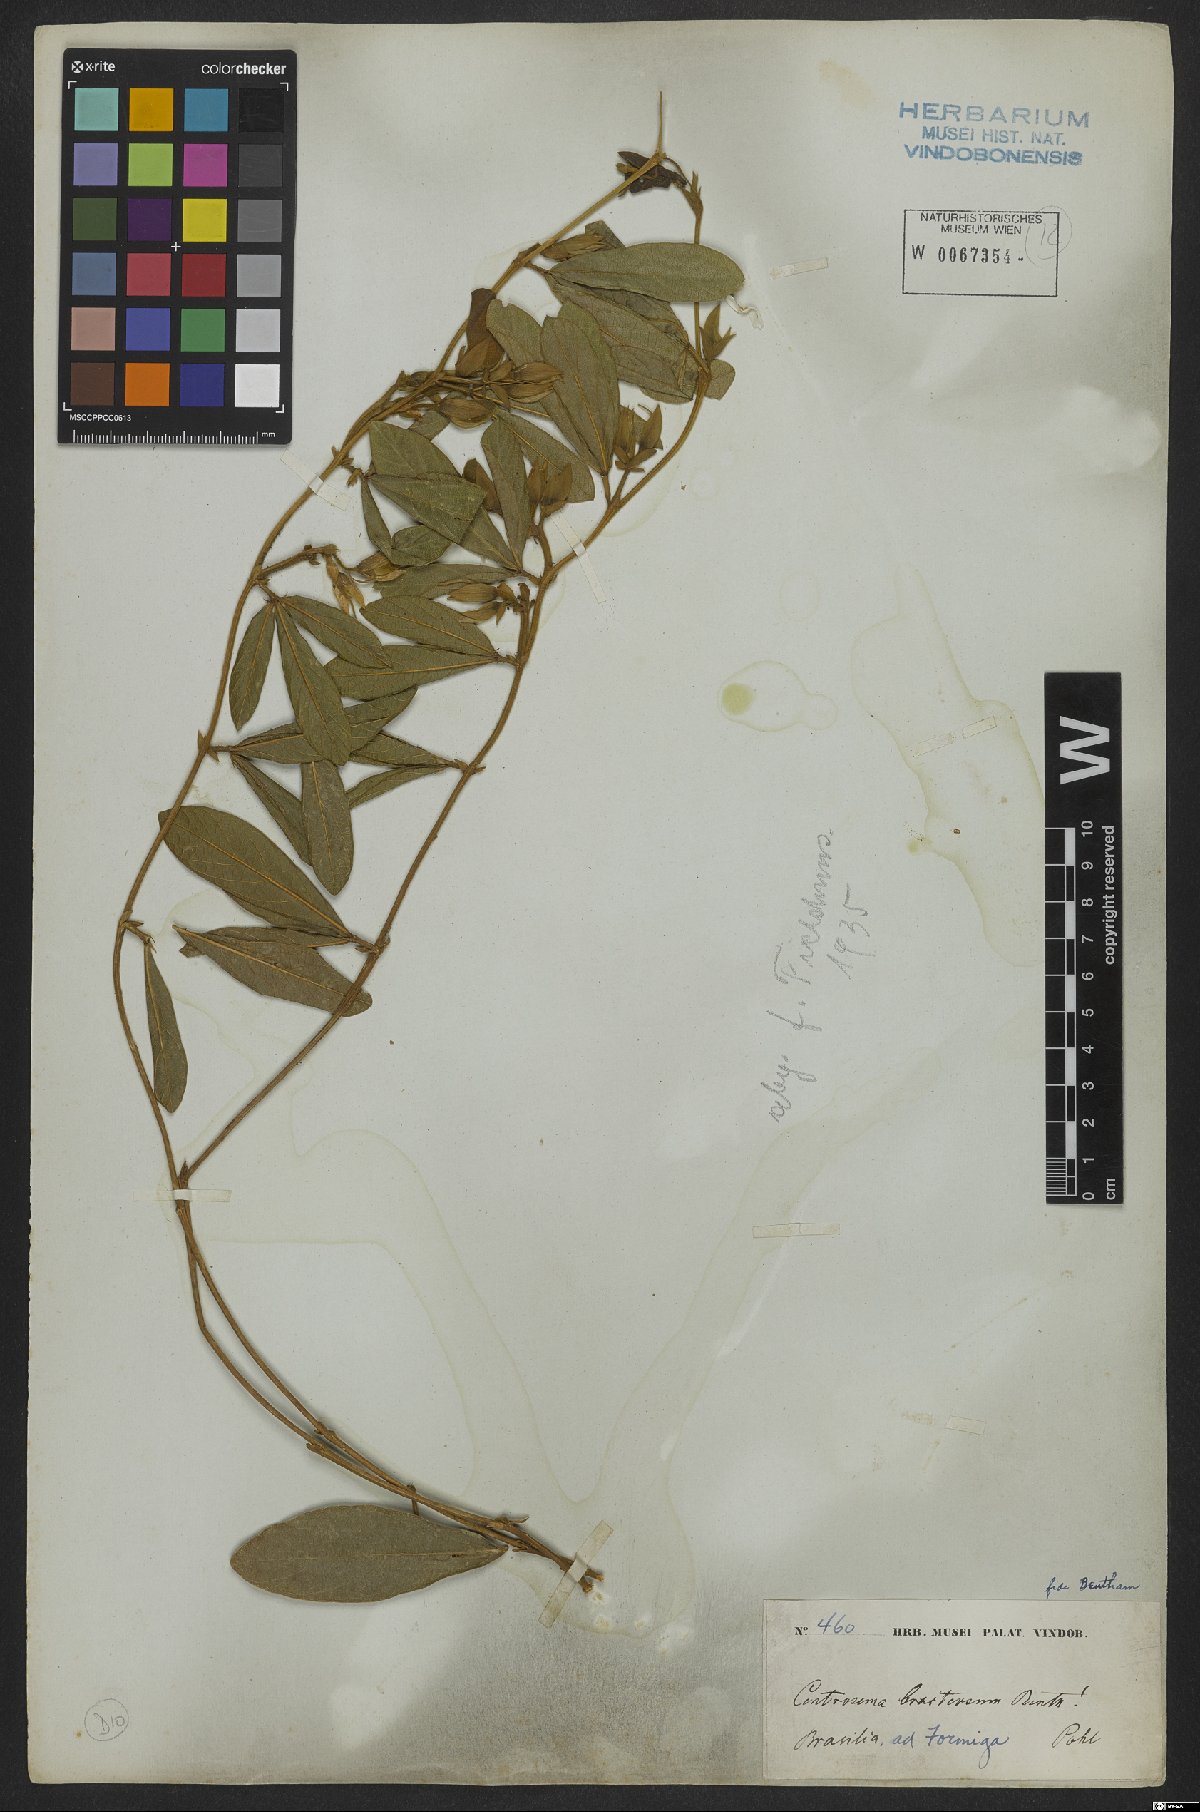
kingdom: Plantae
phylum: Tracheophyta
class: Magnoliopsida
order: Fabales
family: Fabaceae
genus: Centrosema
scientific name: Centrosema bracteosum
